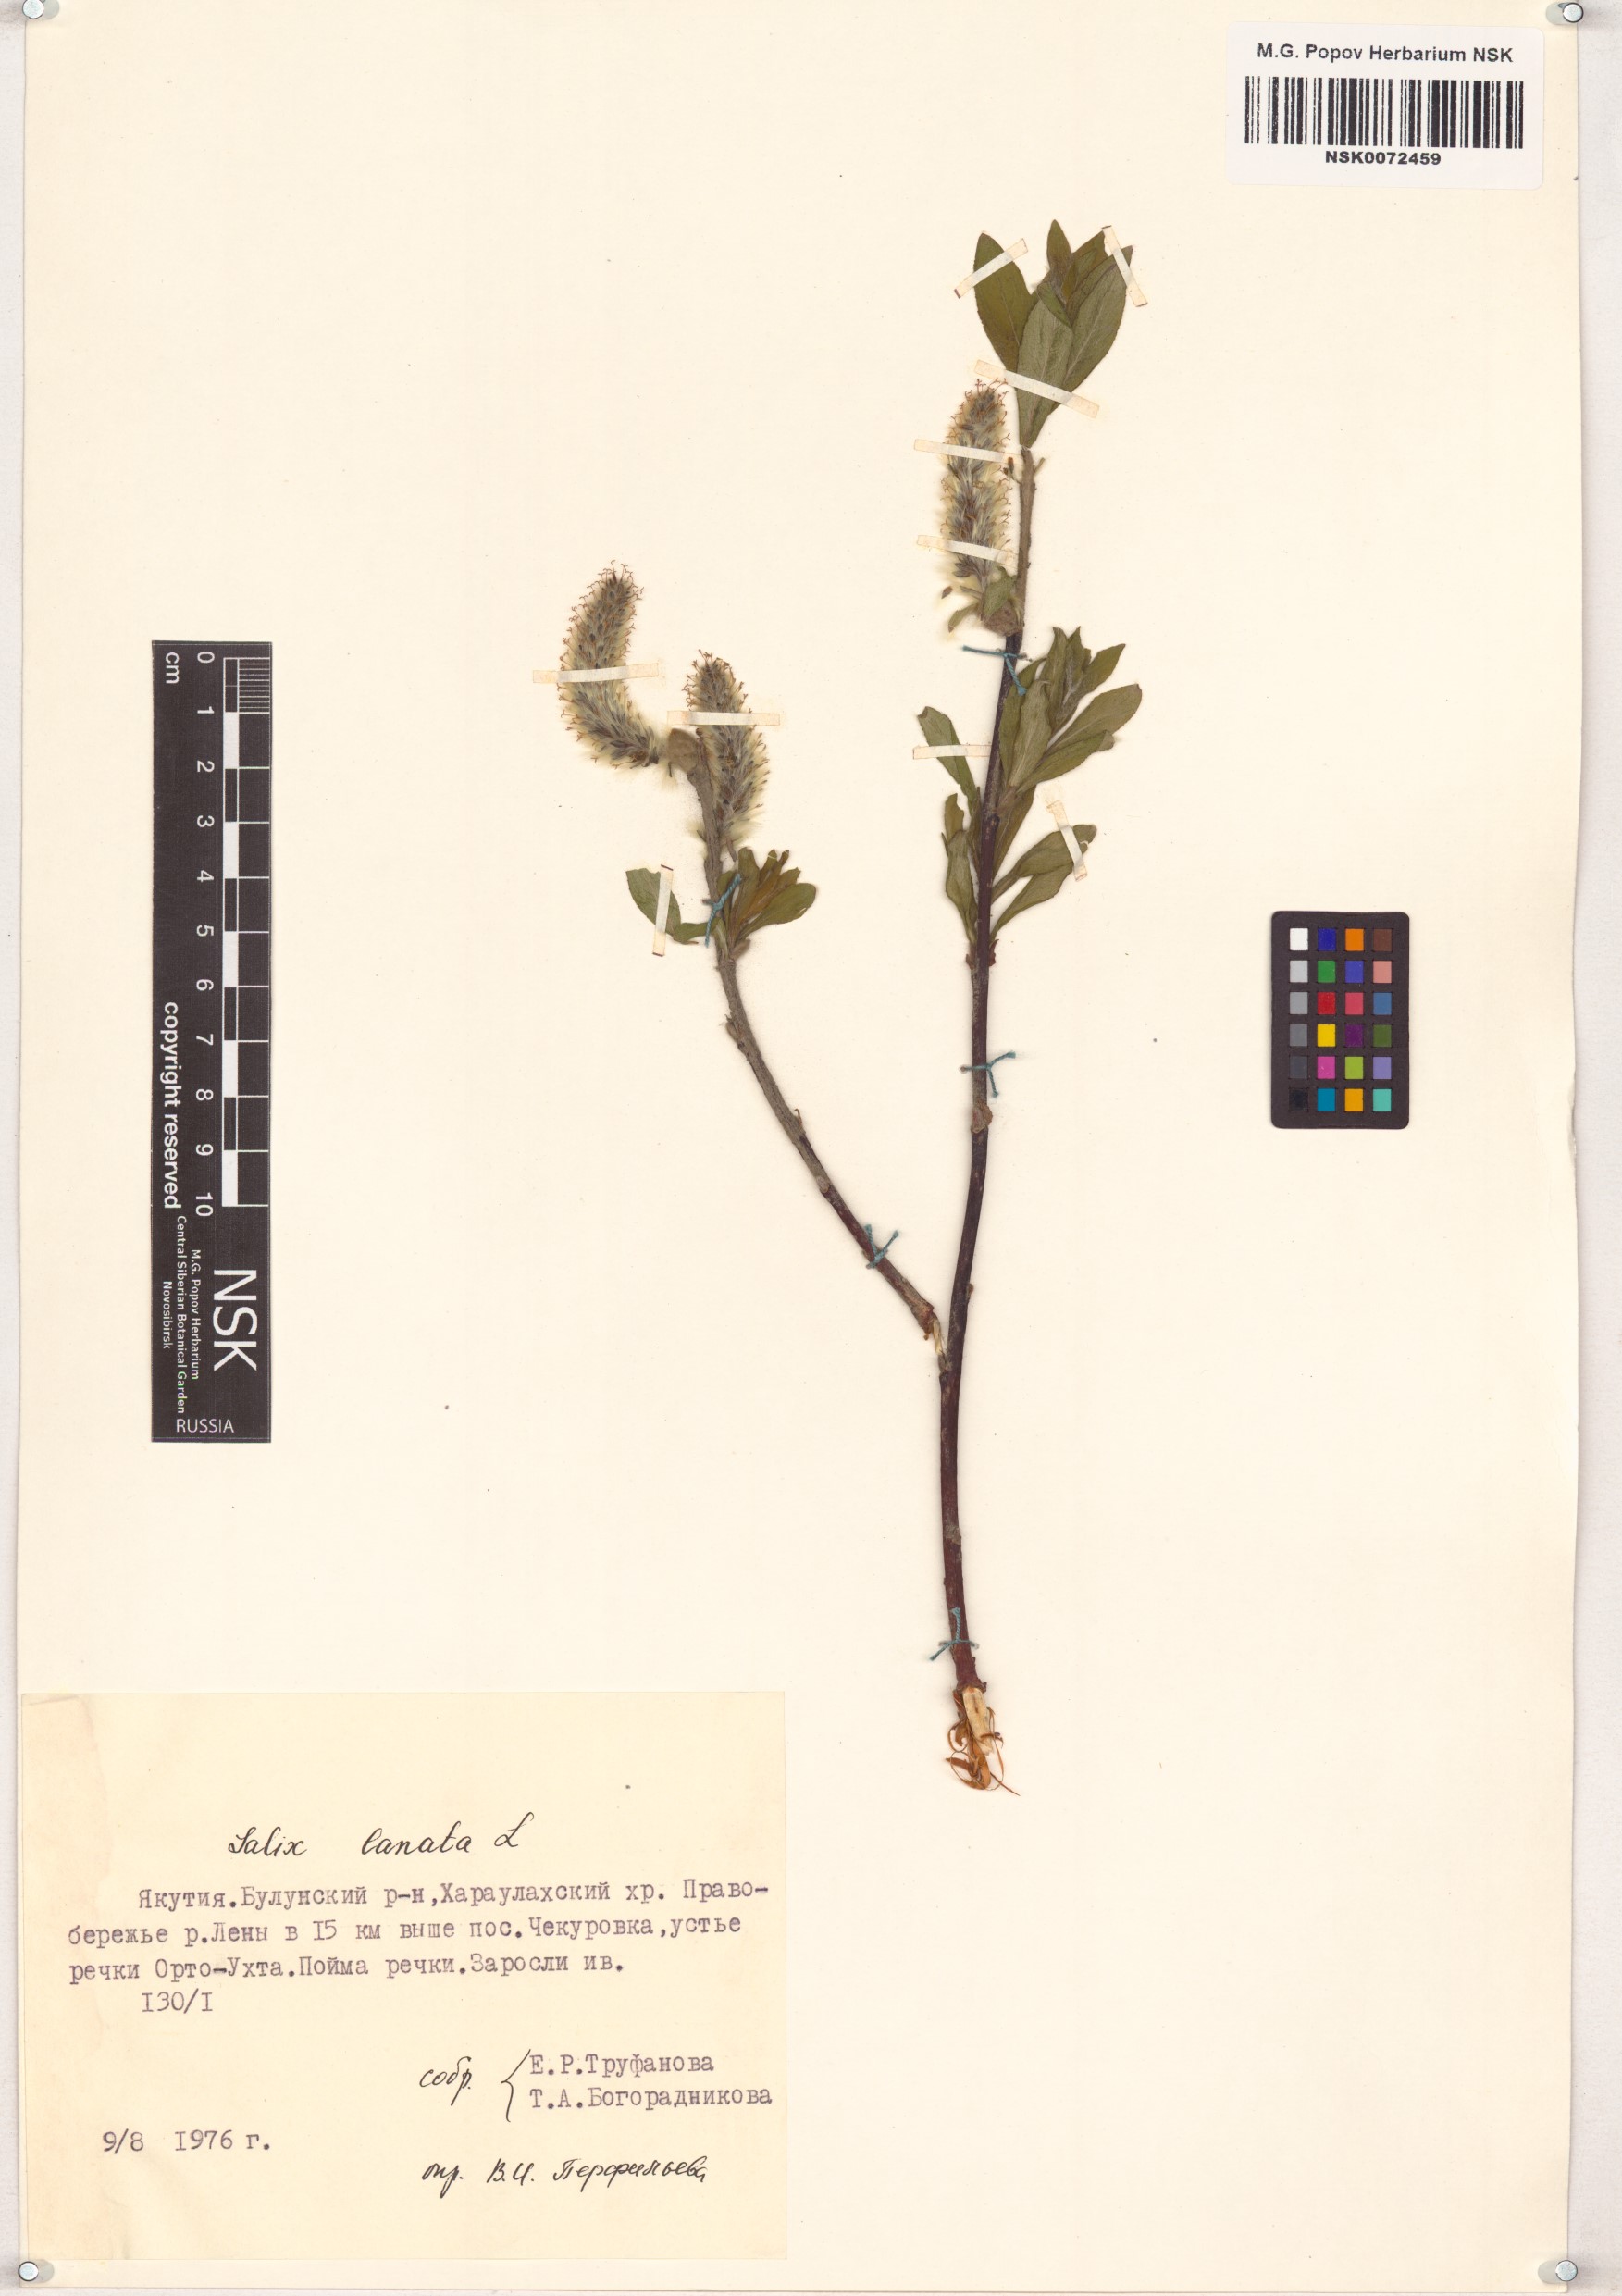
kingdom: Plantae
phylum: Tracheophyta
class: Magnoliopsida
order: Malpighiales
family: Salicaceae
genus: Salix
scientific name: Salix lanata
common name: Woolly willow
